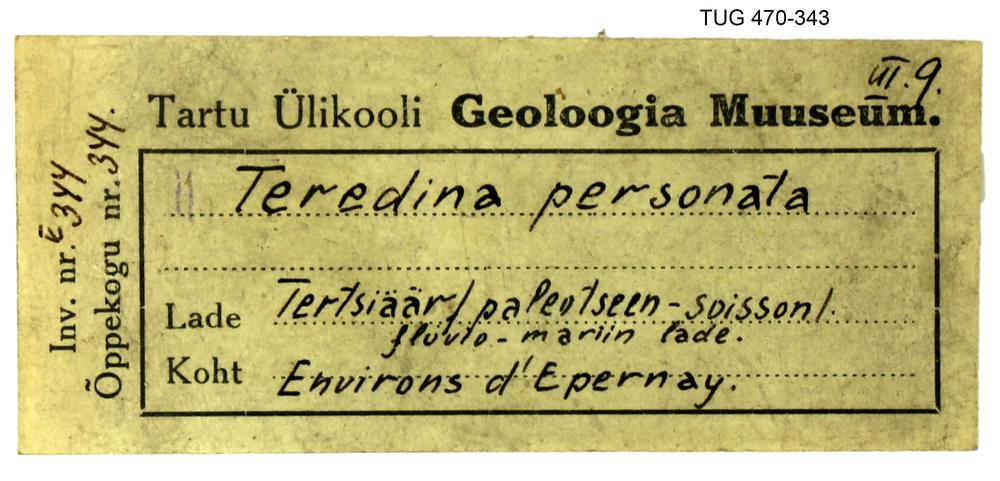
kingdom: Animalia
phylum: Mollusca
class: Bivalvia
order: Myida
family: Teredinidae
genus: Teredina
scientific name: Teredina personata
